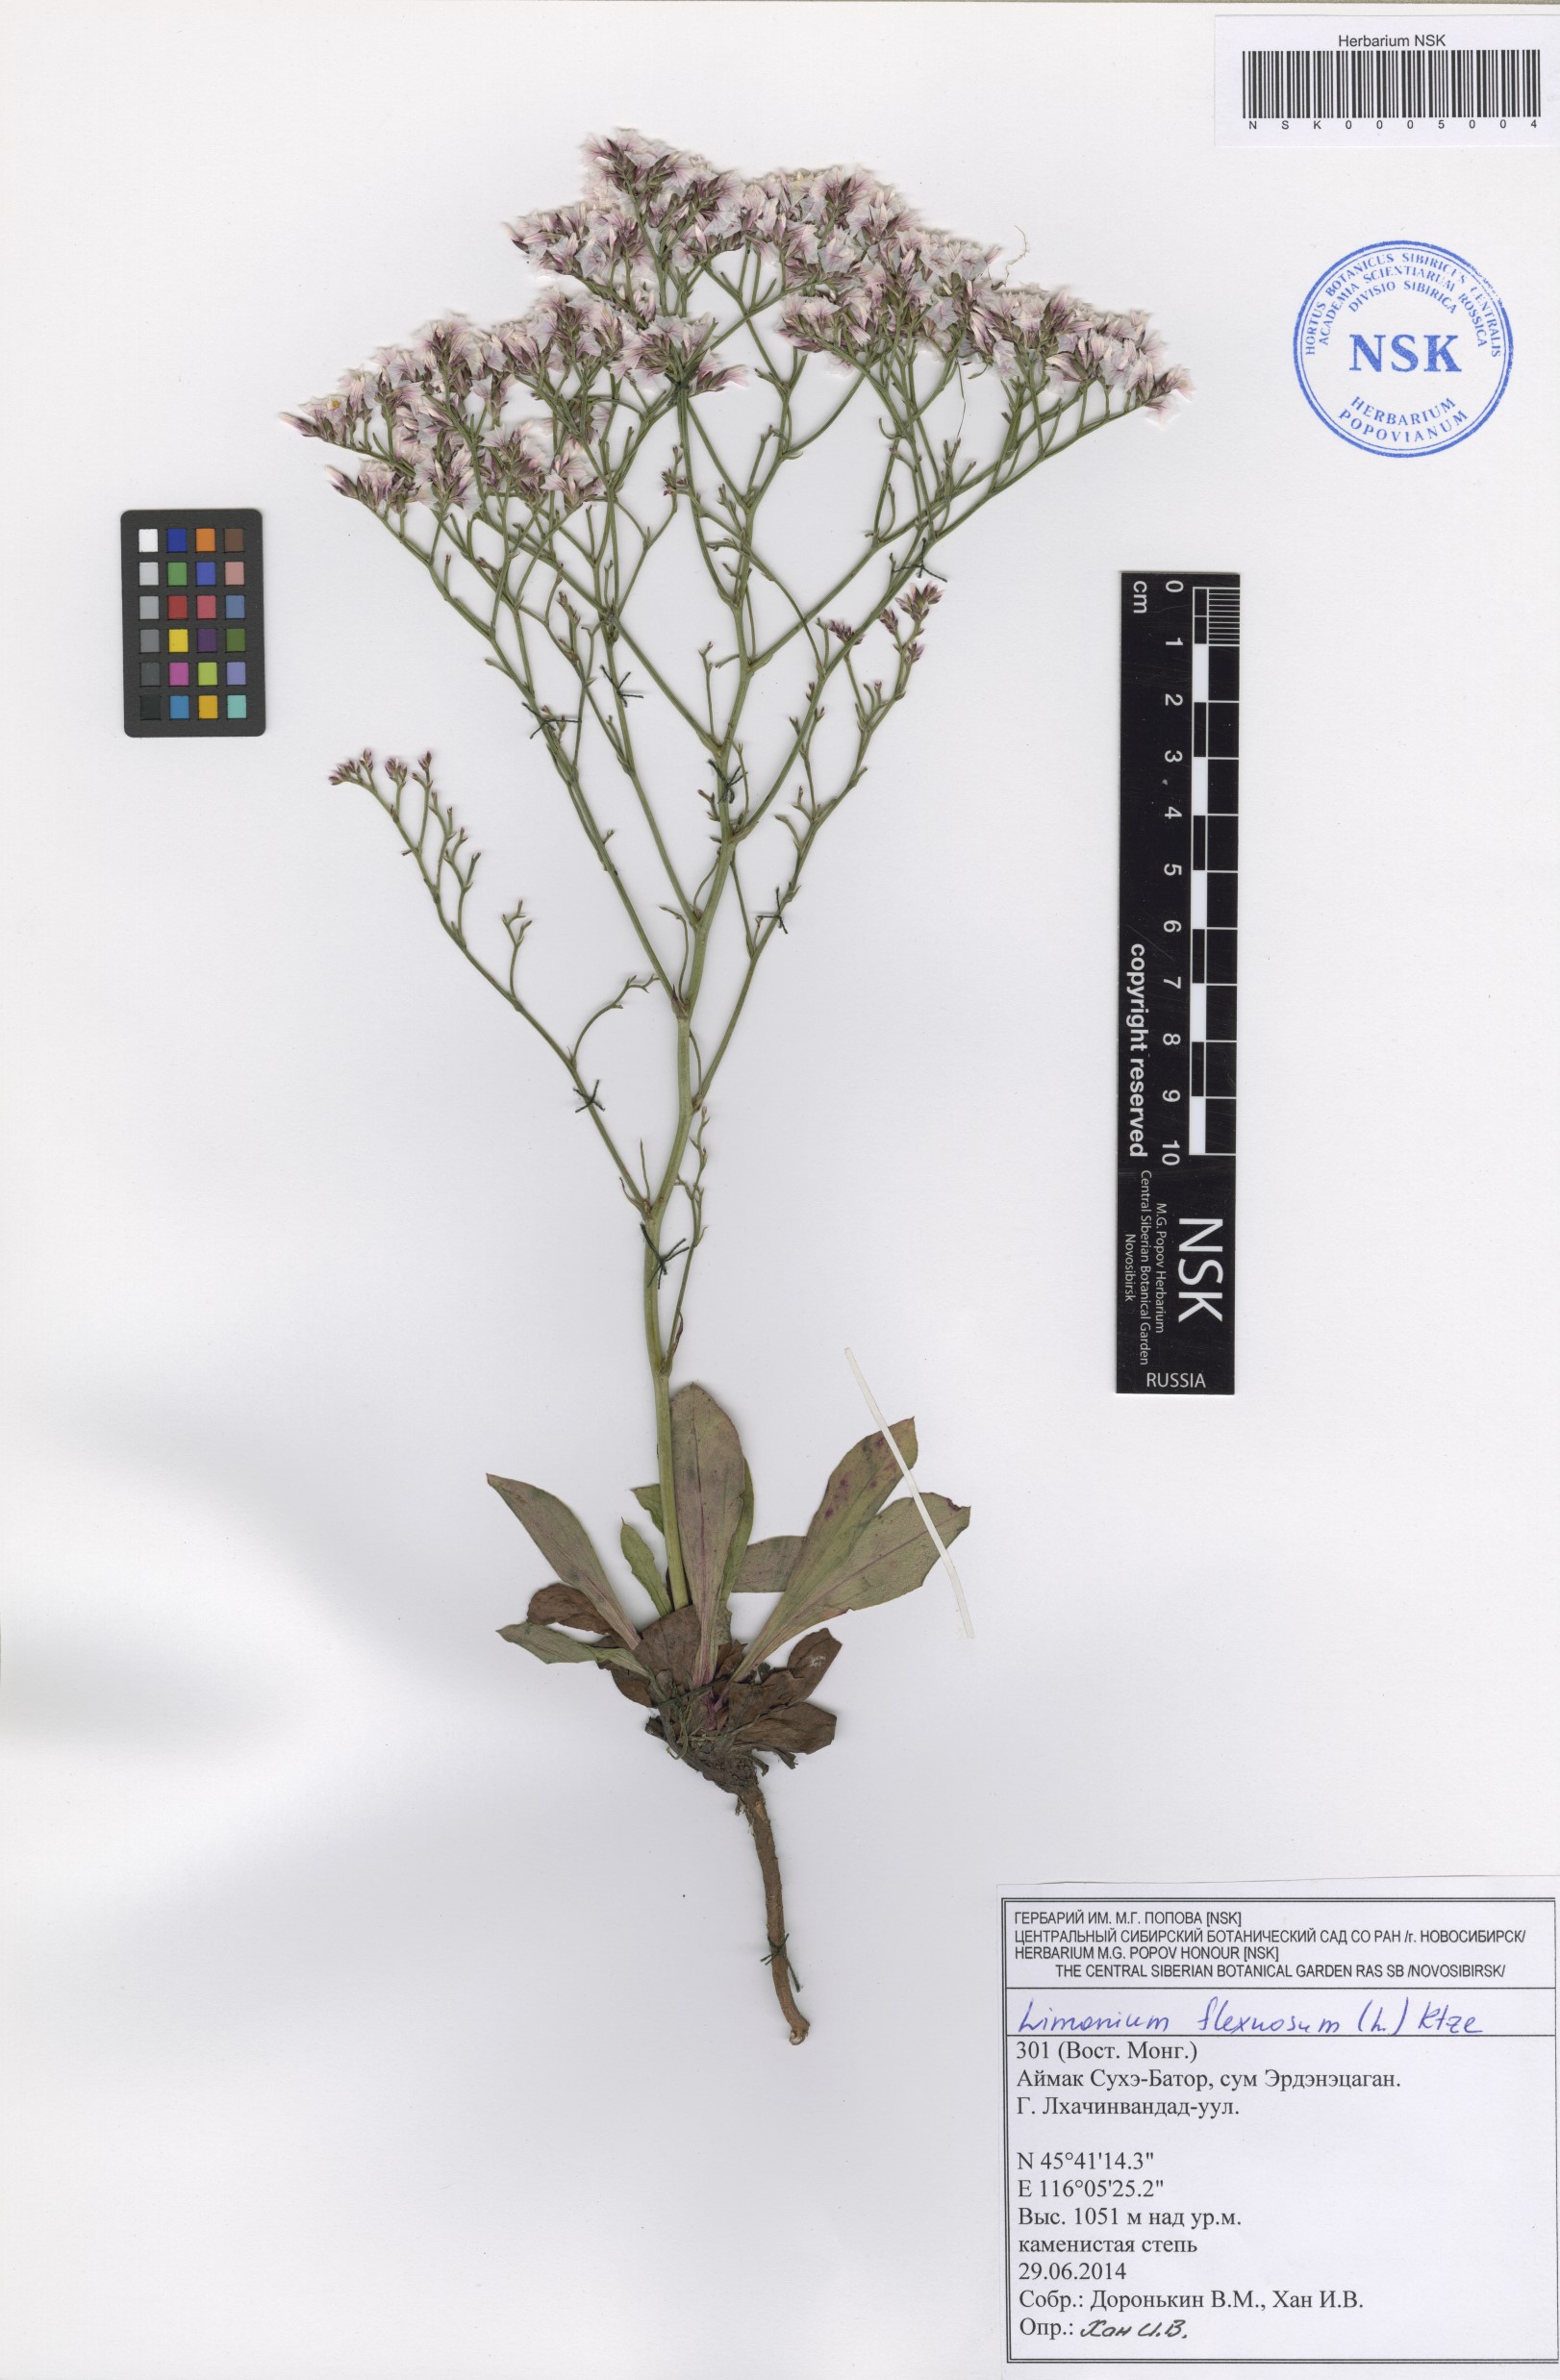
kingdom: Plantae
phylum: Tracheophyta
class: Magnoliopsida
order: Caryophyllales
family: Plumbaginaceae
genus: Limonium
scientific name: Limonium flexuosum
